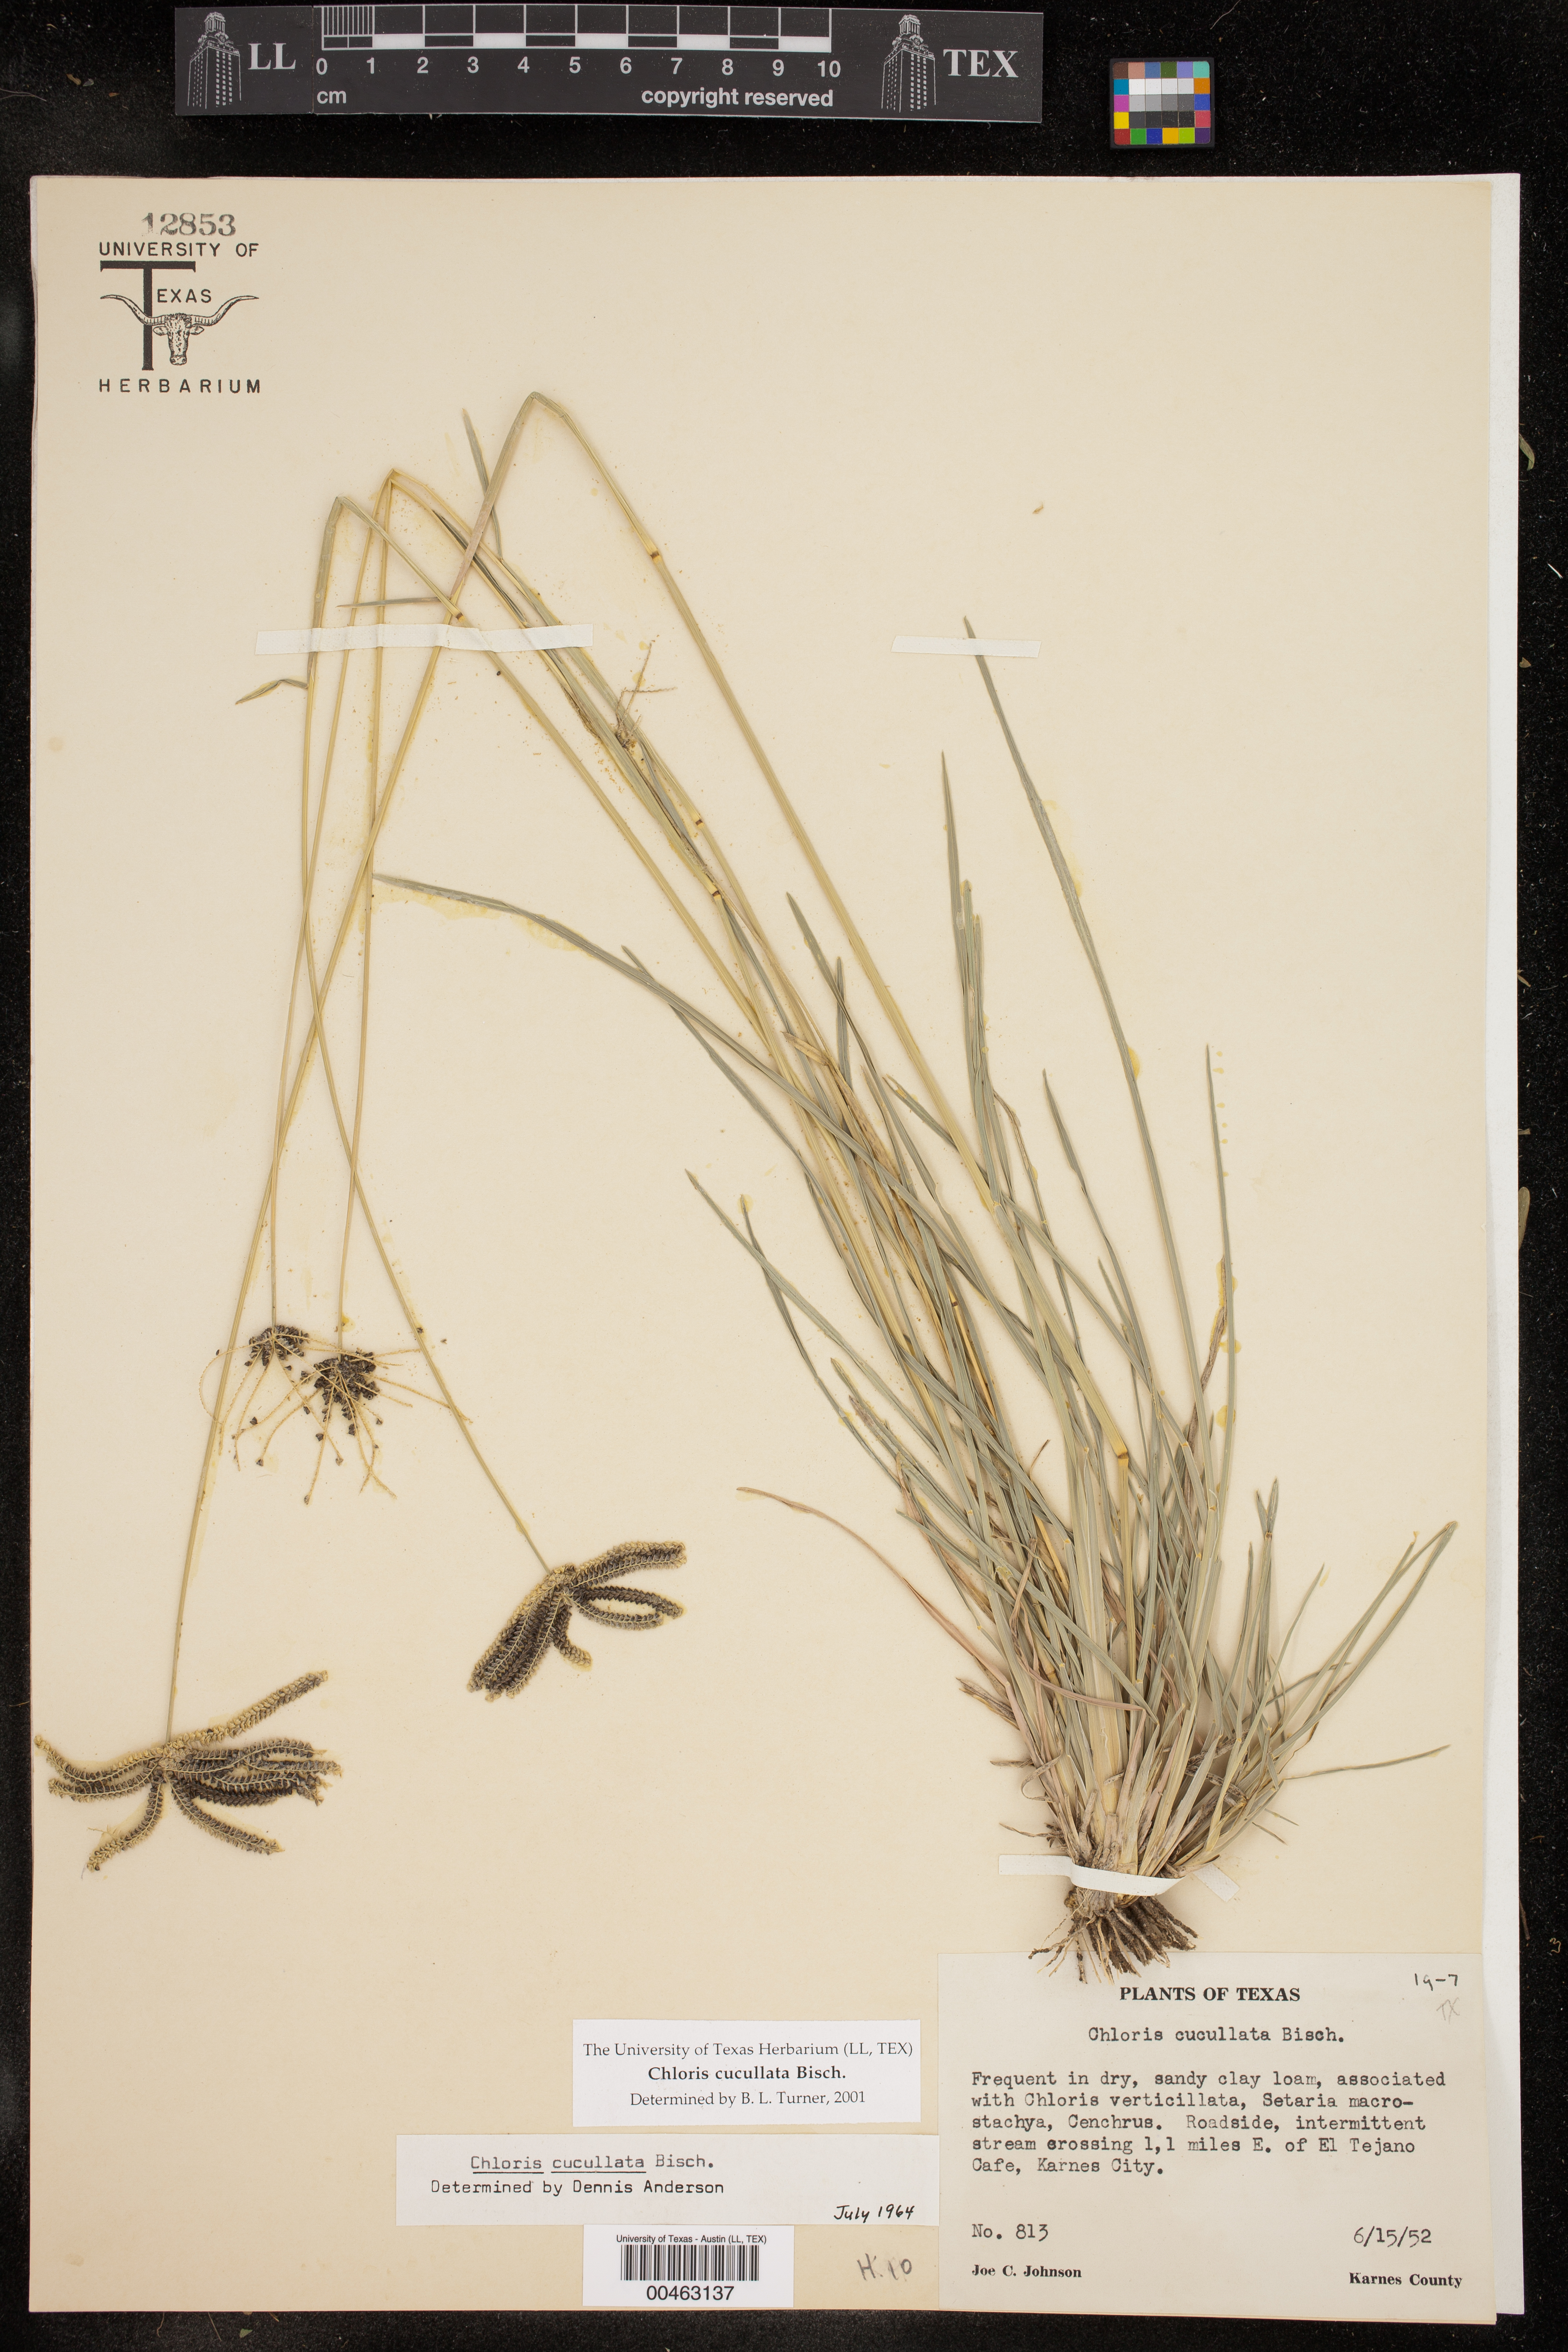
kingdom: Plantae
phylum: Tracheophyta
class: Liliopsida
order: Poales
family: Poaceae
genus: Chloris
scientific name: Chloris cucullata
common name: Hooded windmill grass
